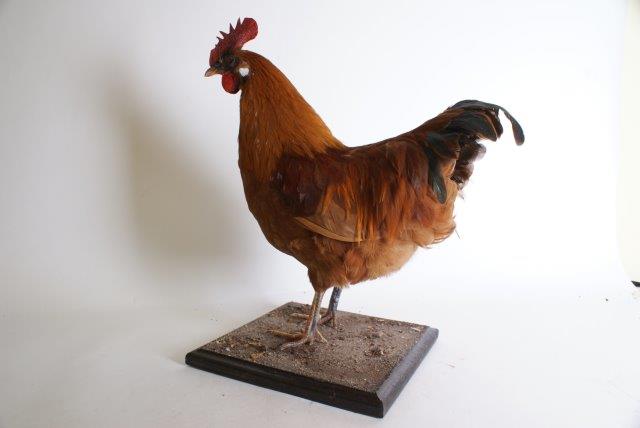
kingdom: Animalia
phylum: Chordata
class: Aves
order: Galliformes
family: Phasianidae
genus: Gallus
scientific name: Gallus gallus
